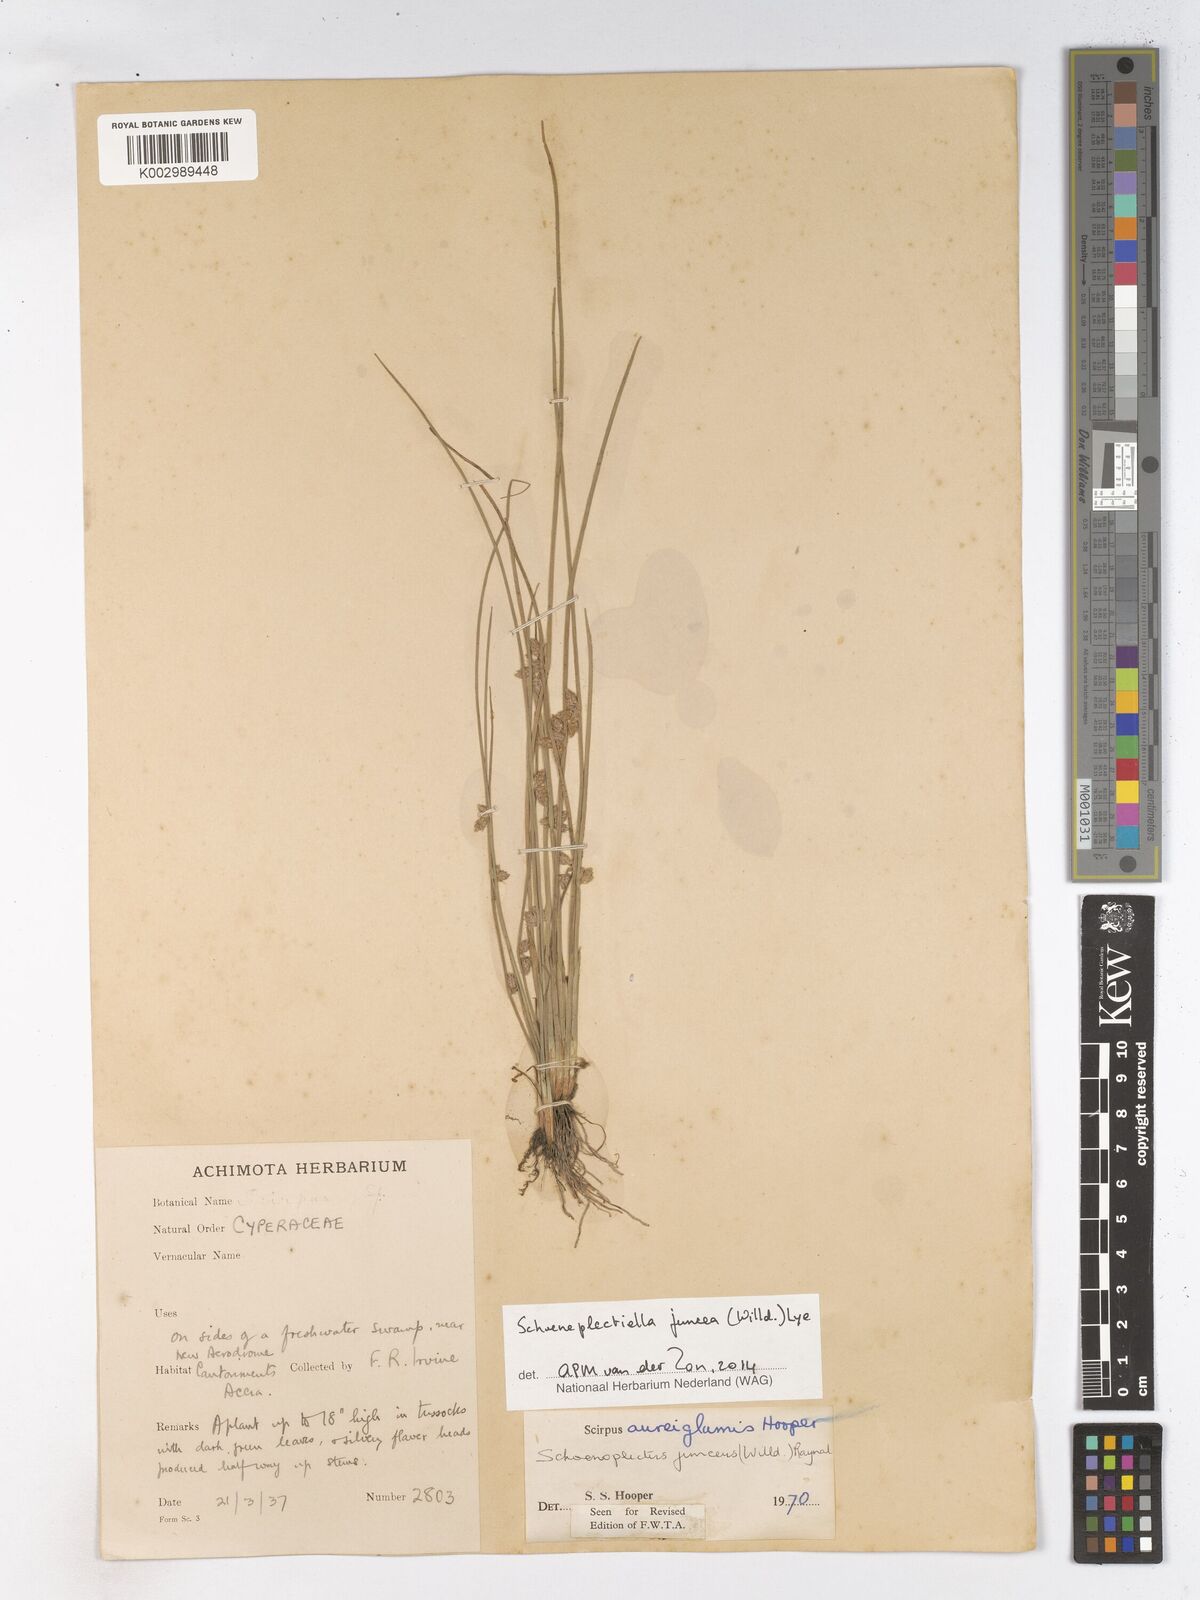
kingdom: Plantae
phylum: Tracheophyta
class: Liliopsida
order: Poales
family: Cyperaceae
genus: Schoenoplectiella
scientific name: Schoenoplectiella juncea
